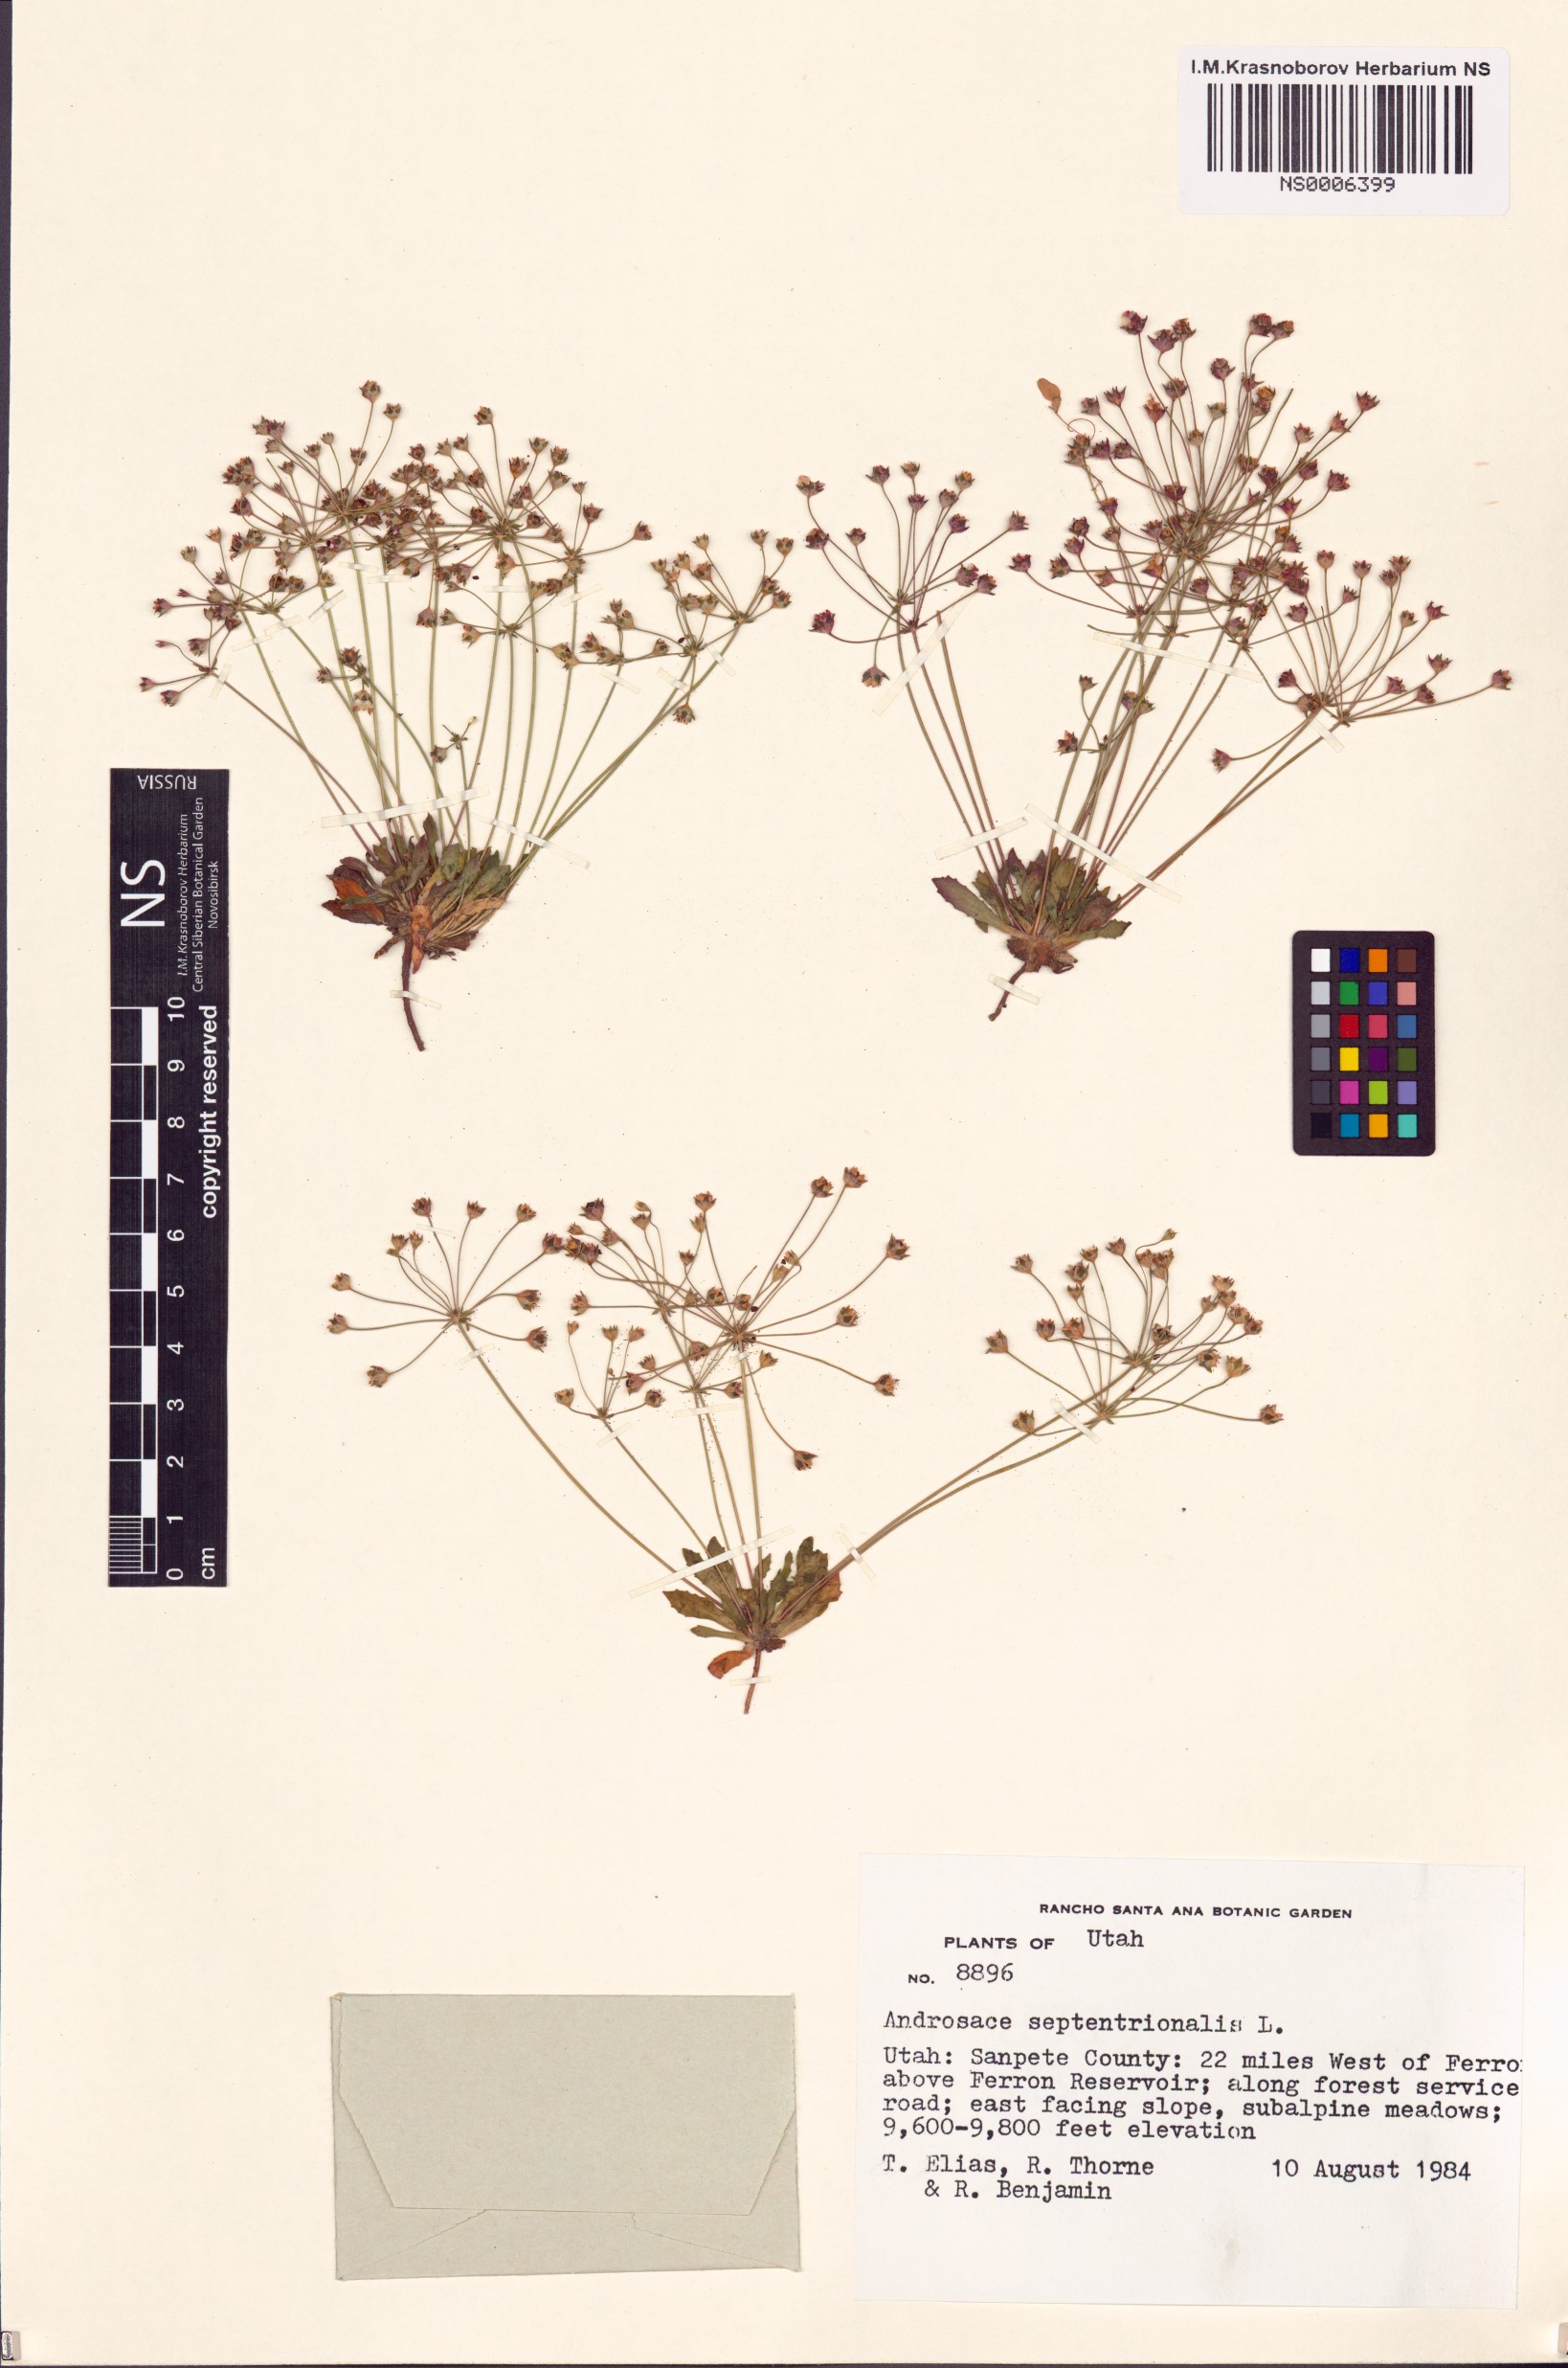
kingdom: Plantae
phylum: Tracheophyta
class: Magnoliopsida
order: Ericales
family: Primulaceae
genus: Androsace
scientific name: Androsace septentrionalis
